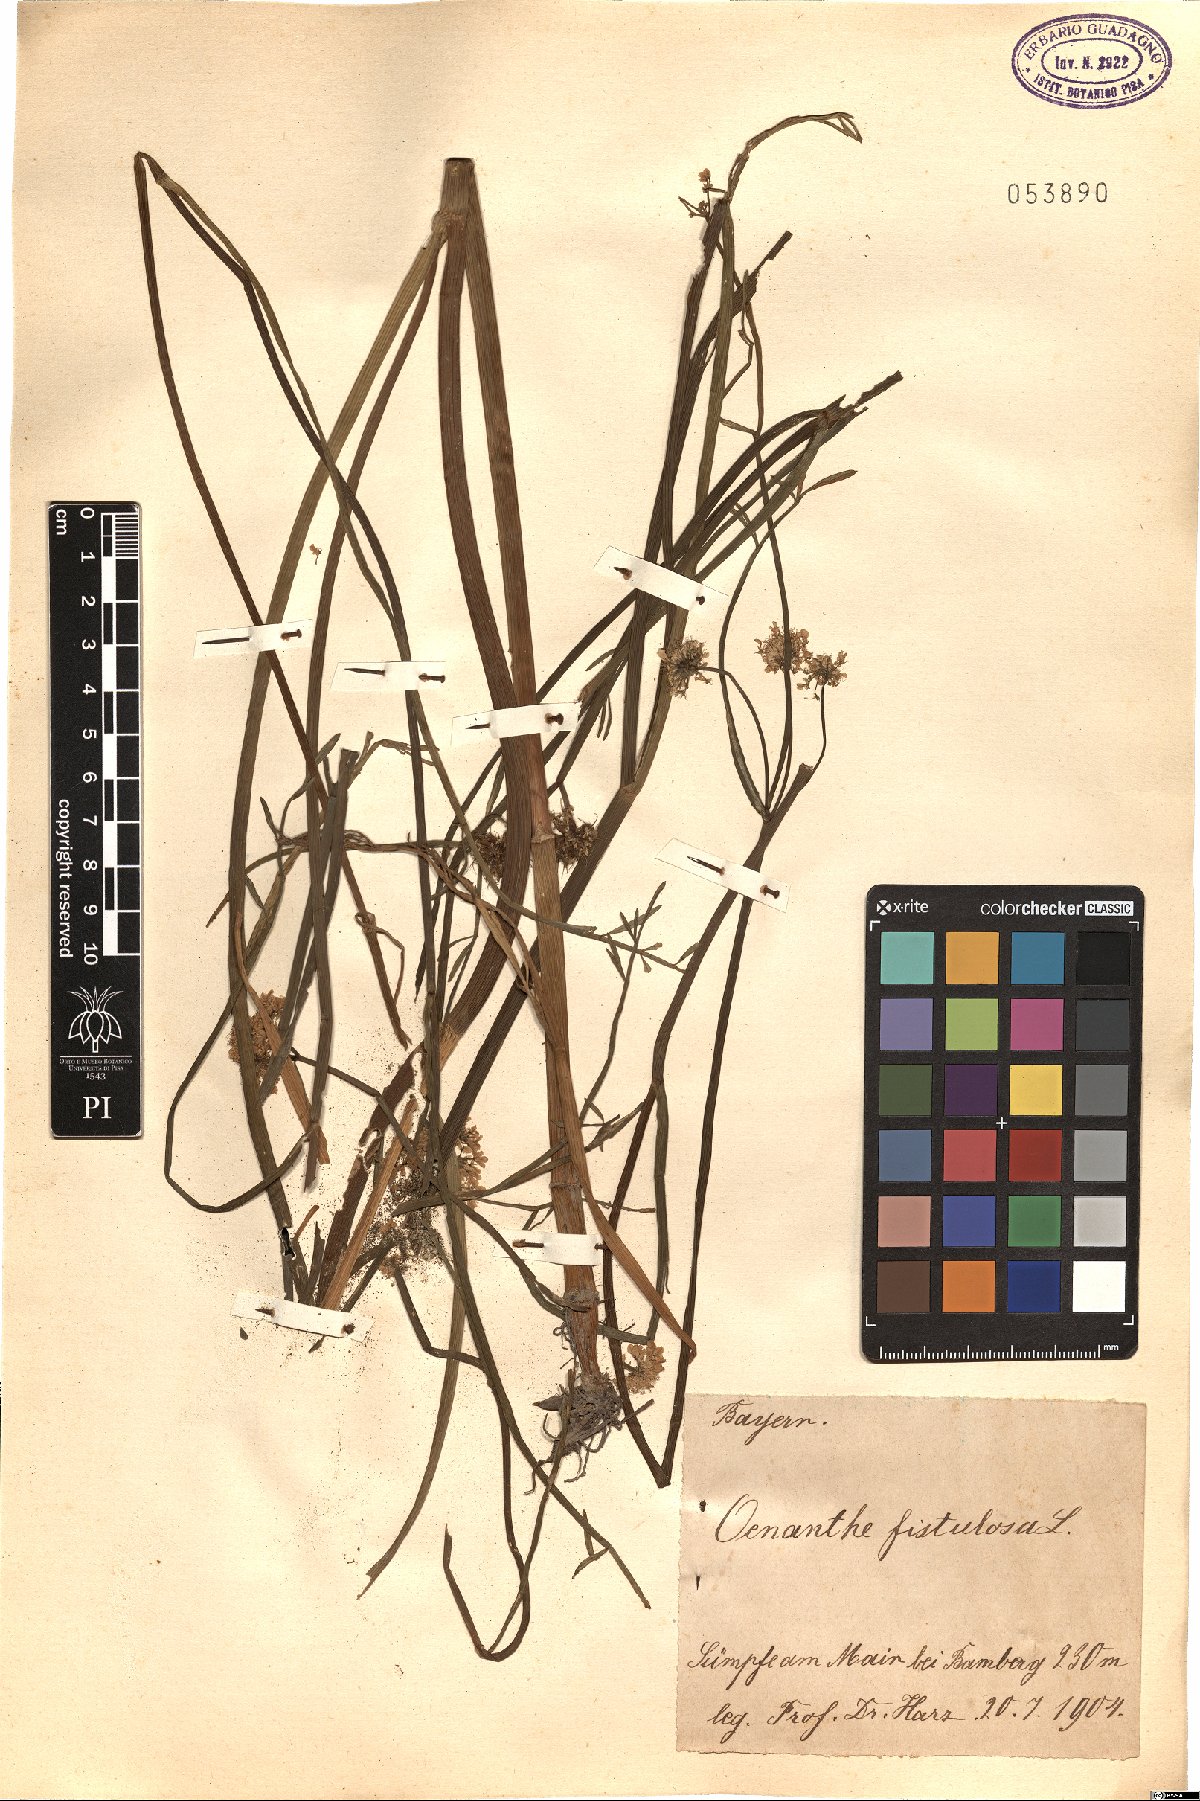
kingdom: Plantae
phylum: Tracheophyta
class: Magnoliopsida
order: Apiales
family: Apiaceae
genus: Oenanthe
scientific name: Oenanthe fistulosa
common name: Tubular water-dropwort
